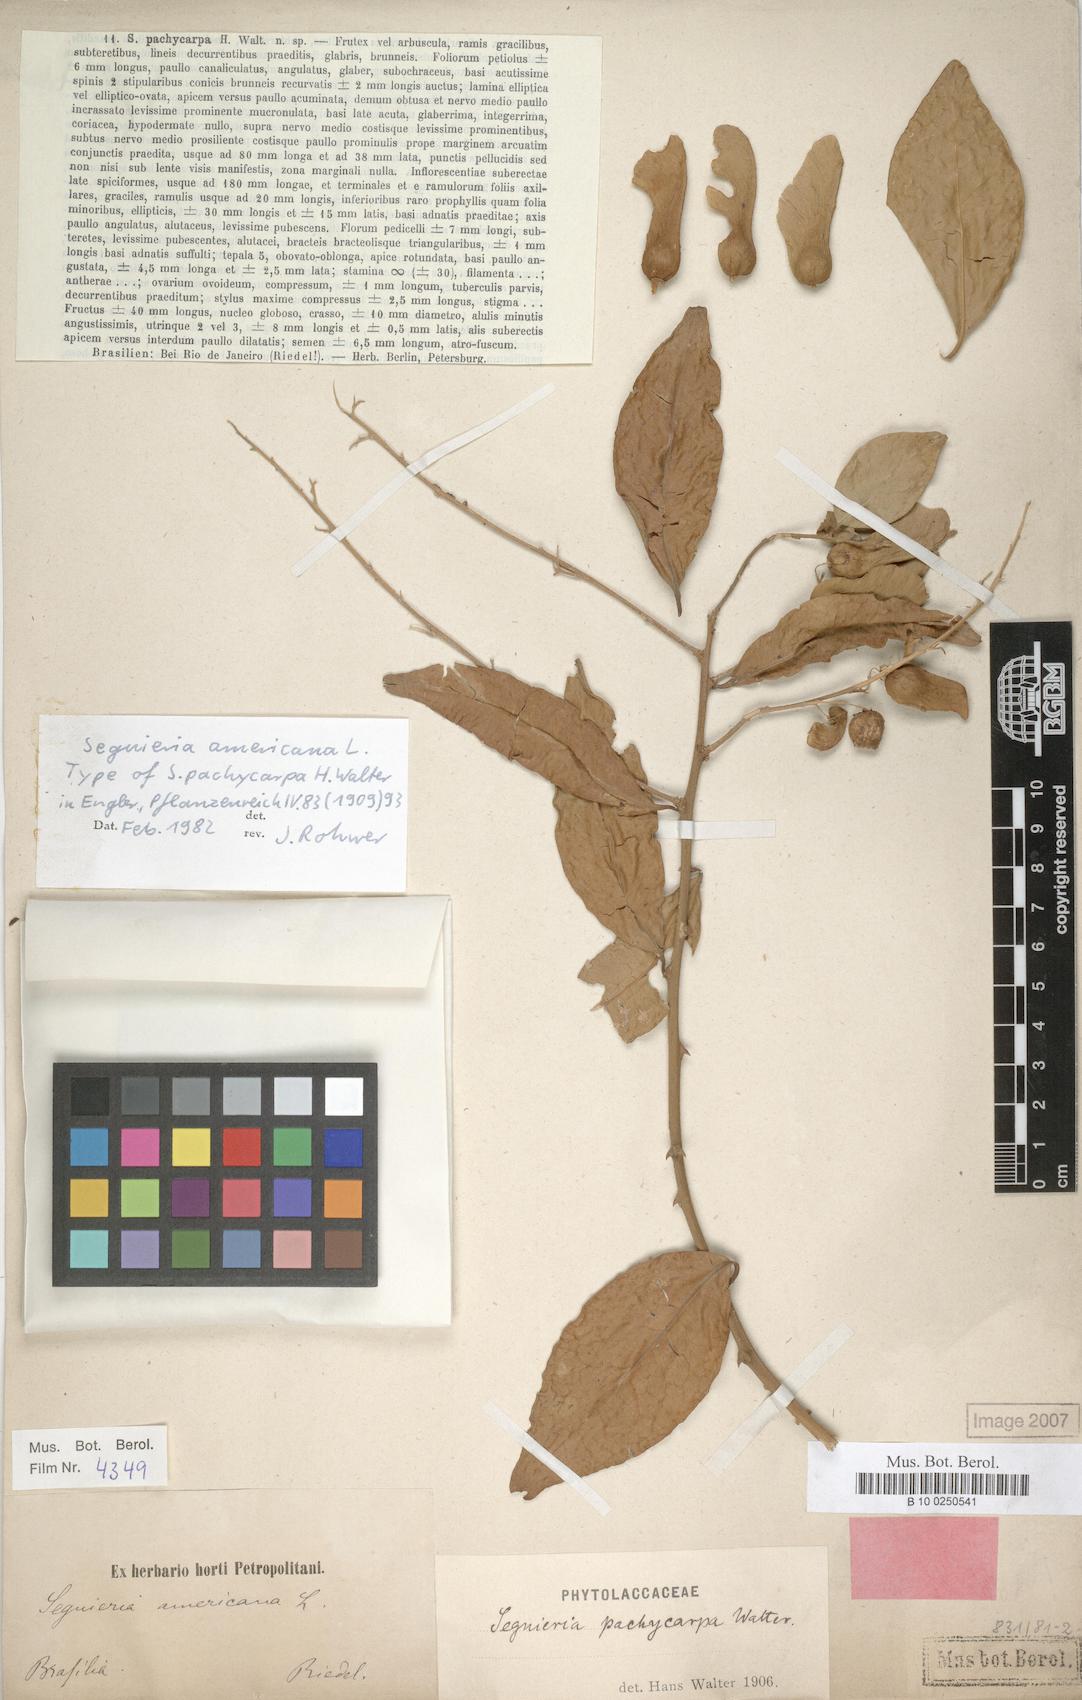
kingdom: Plantae
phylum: Tracheophyta
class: Magnoliopsida
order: Caryophyllales
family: Phytolaccaceae
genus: Seguieria
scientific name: Seguieria americana
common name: American seguieria
